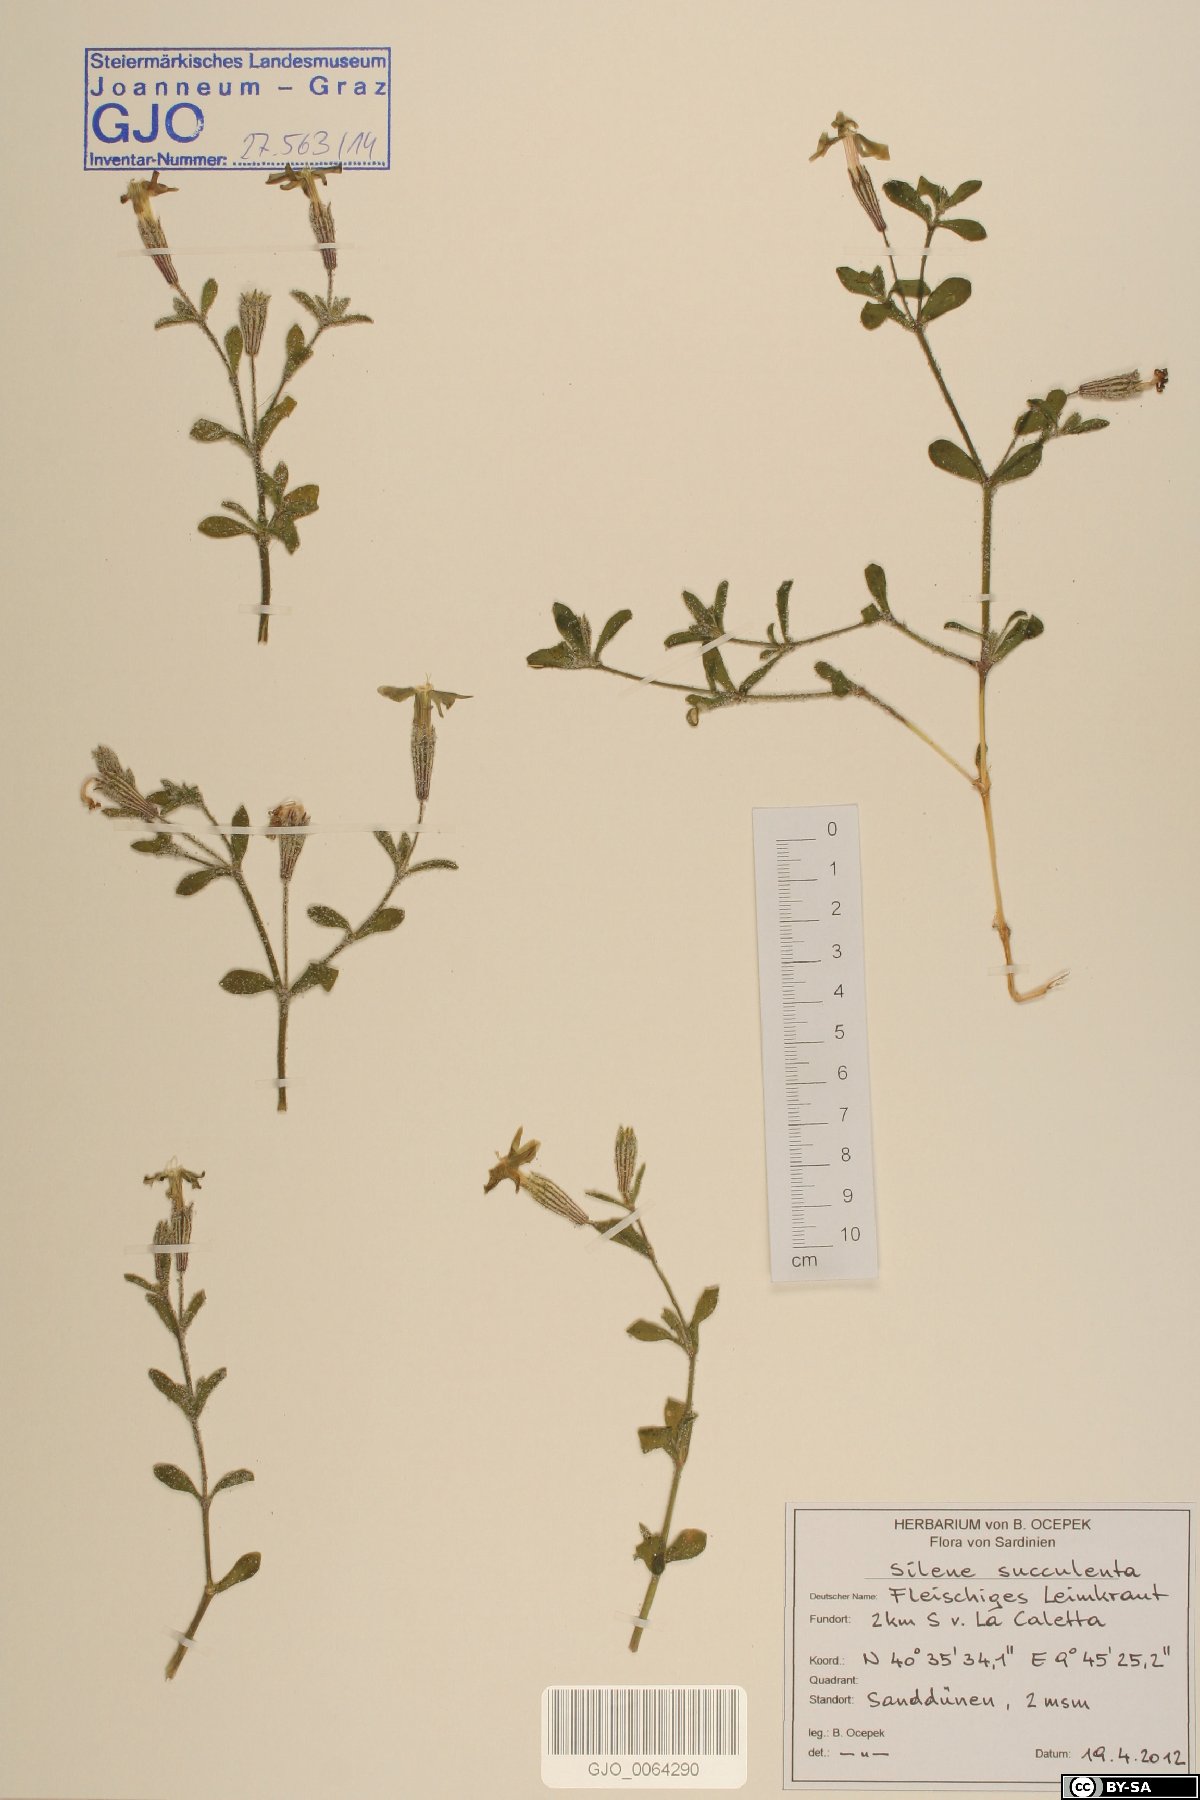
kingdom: Plantae
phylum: Tracheophyta
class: Magnoliopsida
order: Caryophyllales
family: Caryophyllaceae
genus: Silene
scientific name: Silene succulenta
